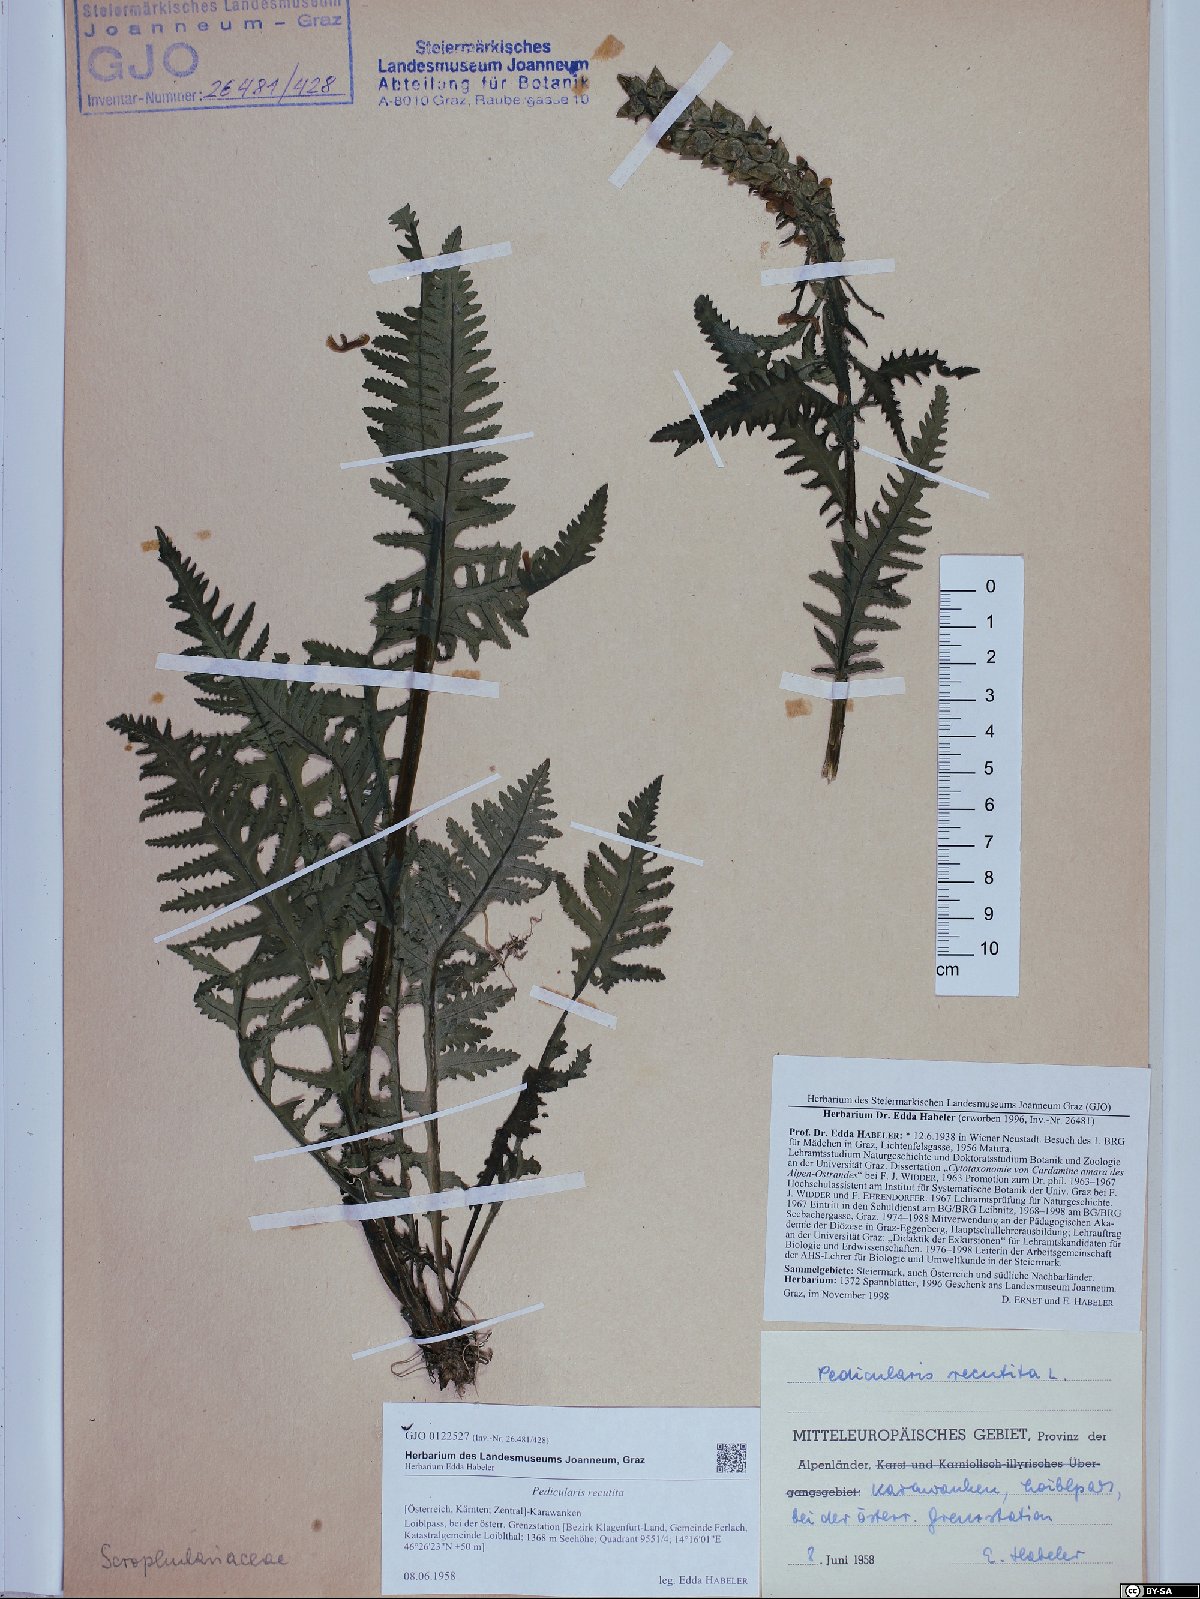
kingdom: Plantae
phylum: Tracheophyta
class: Magnoliopsida
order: Lamiales
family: Orobanchaceae
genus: Pedicularis
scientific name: Pedicularis recutita
